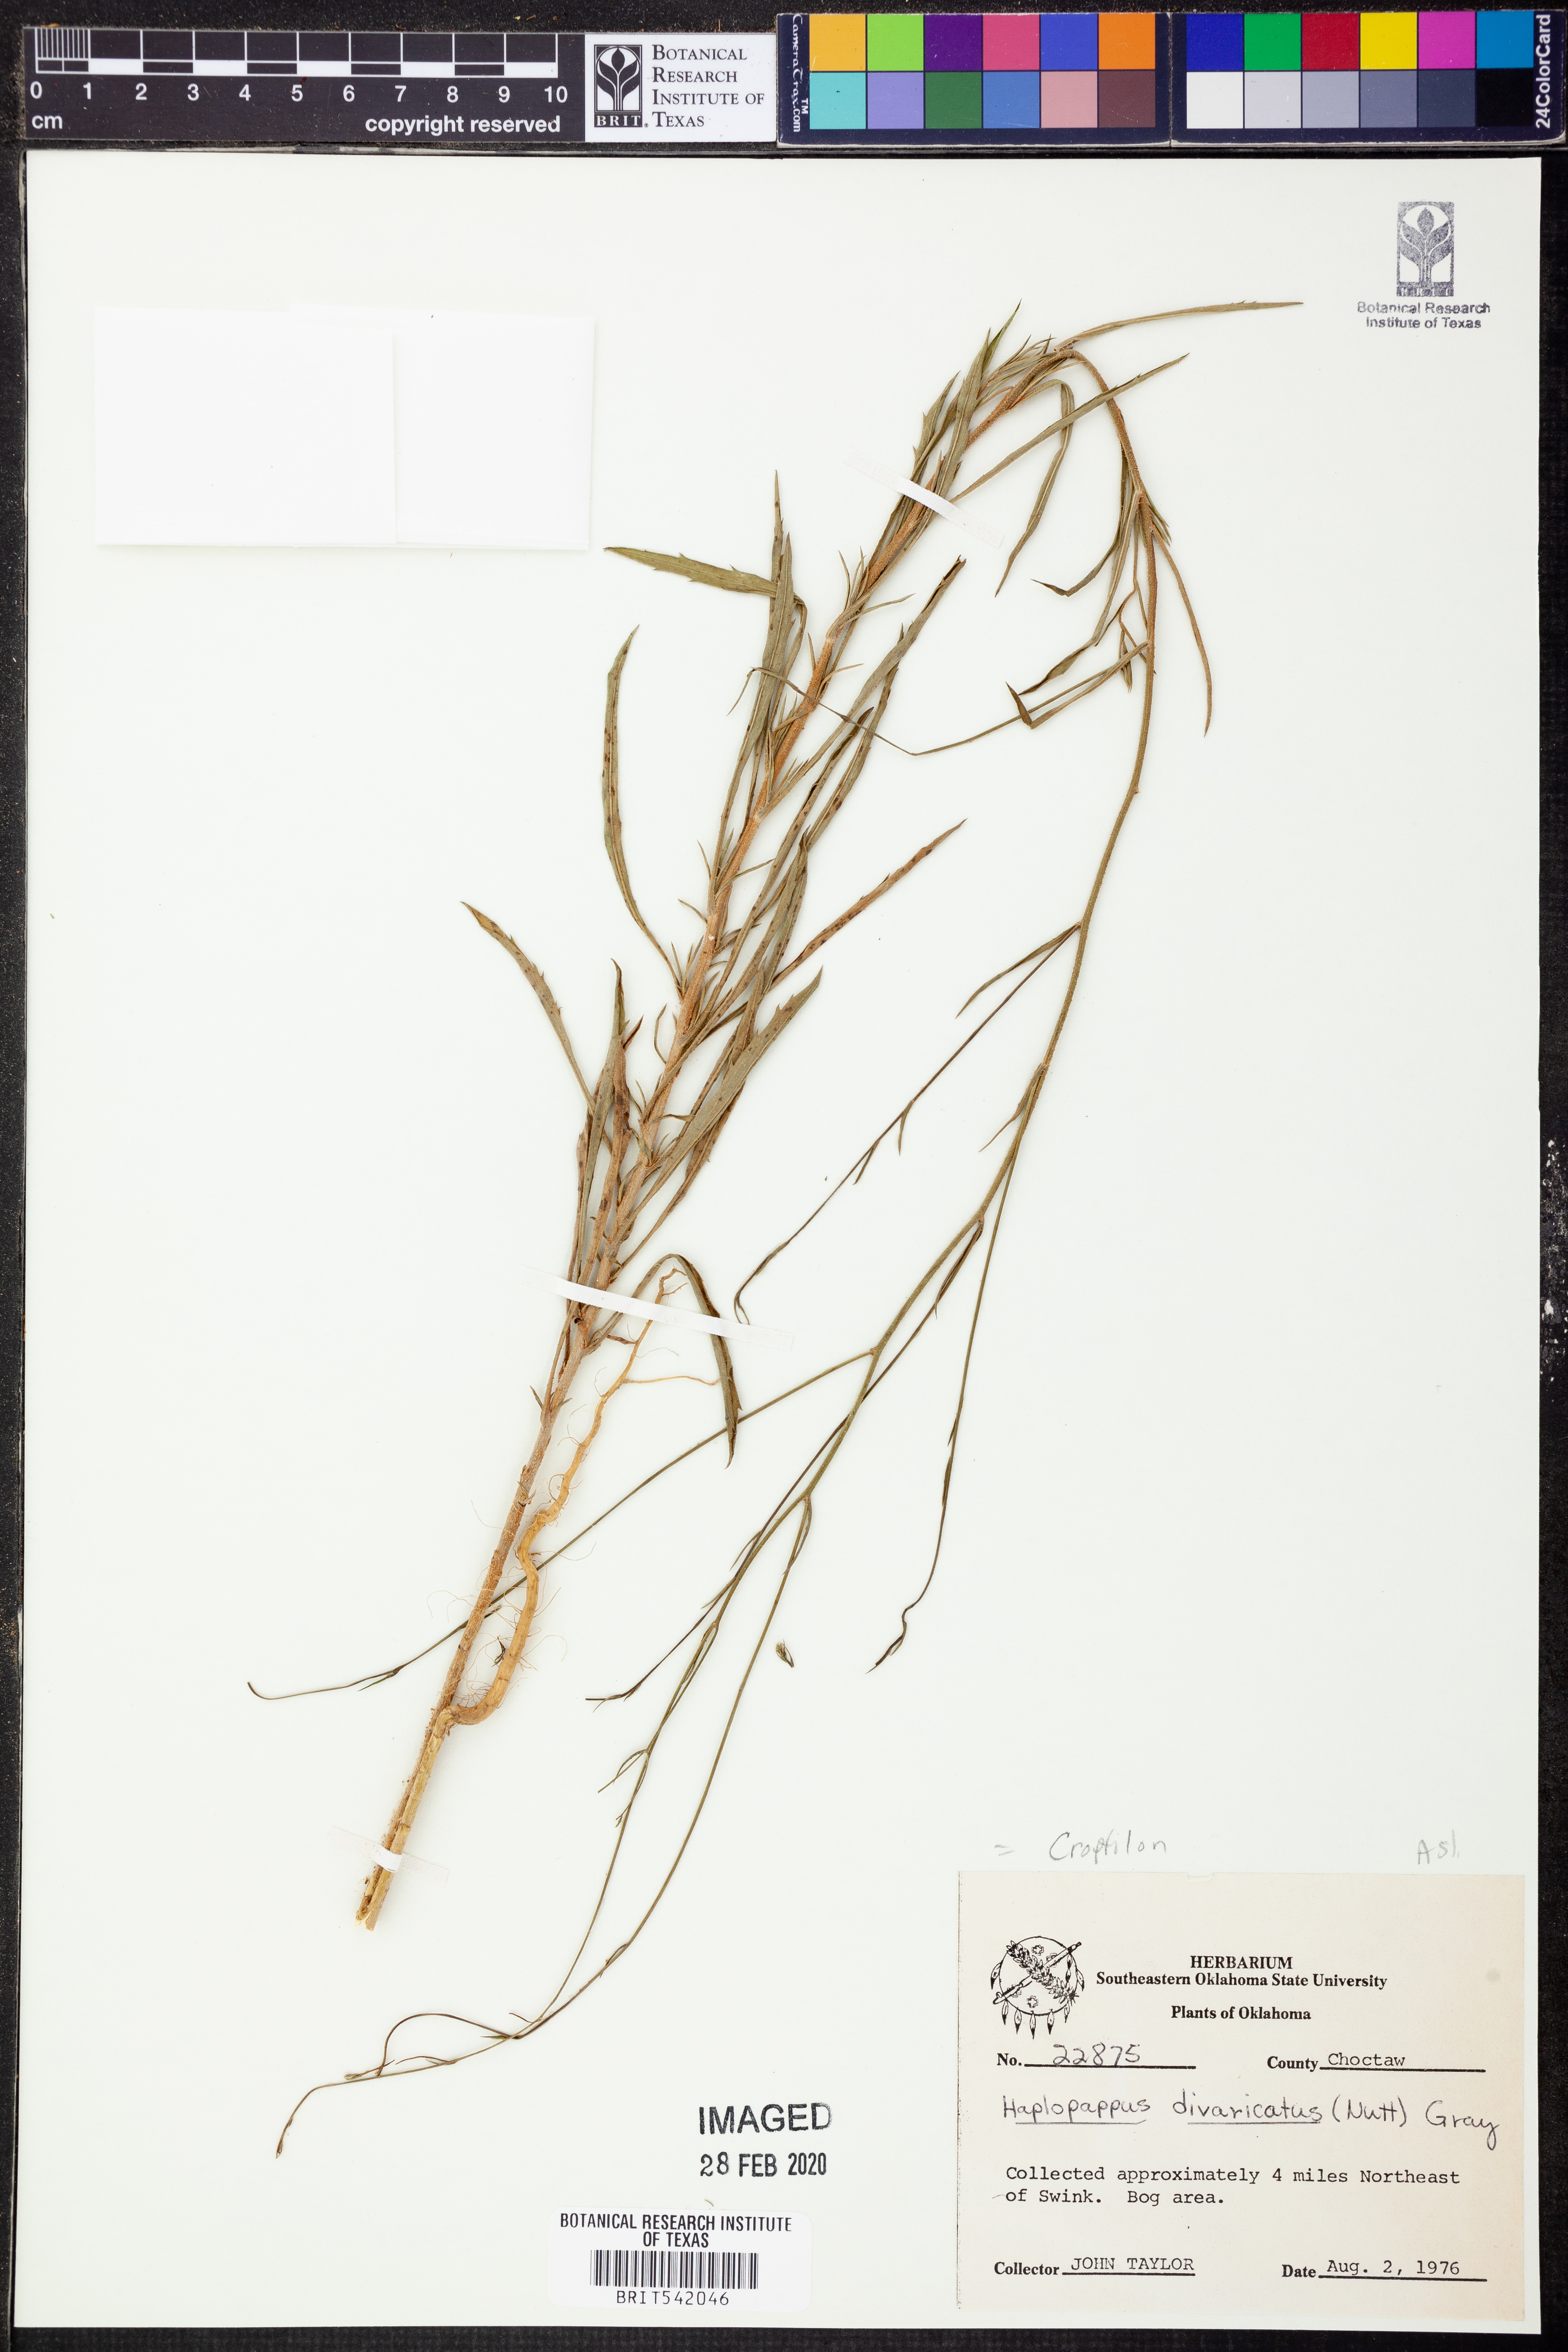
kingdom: Plantae
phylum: Tracheophyta
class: Magnoliopsida
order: Asterales
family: Asteraceae
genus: Croptilon
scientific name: Croptilon divaricatum
